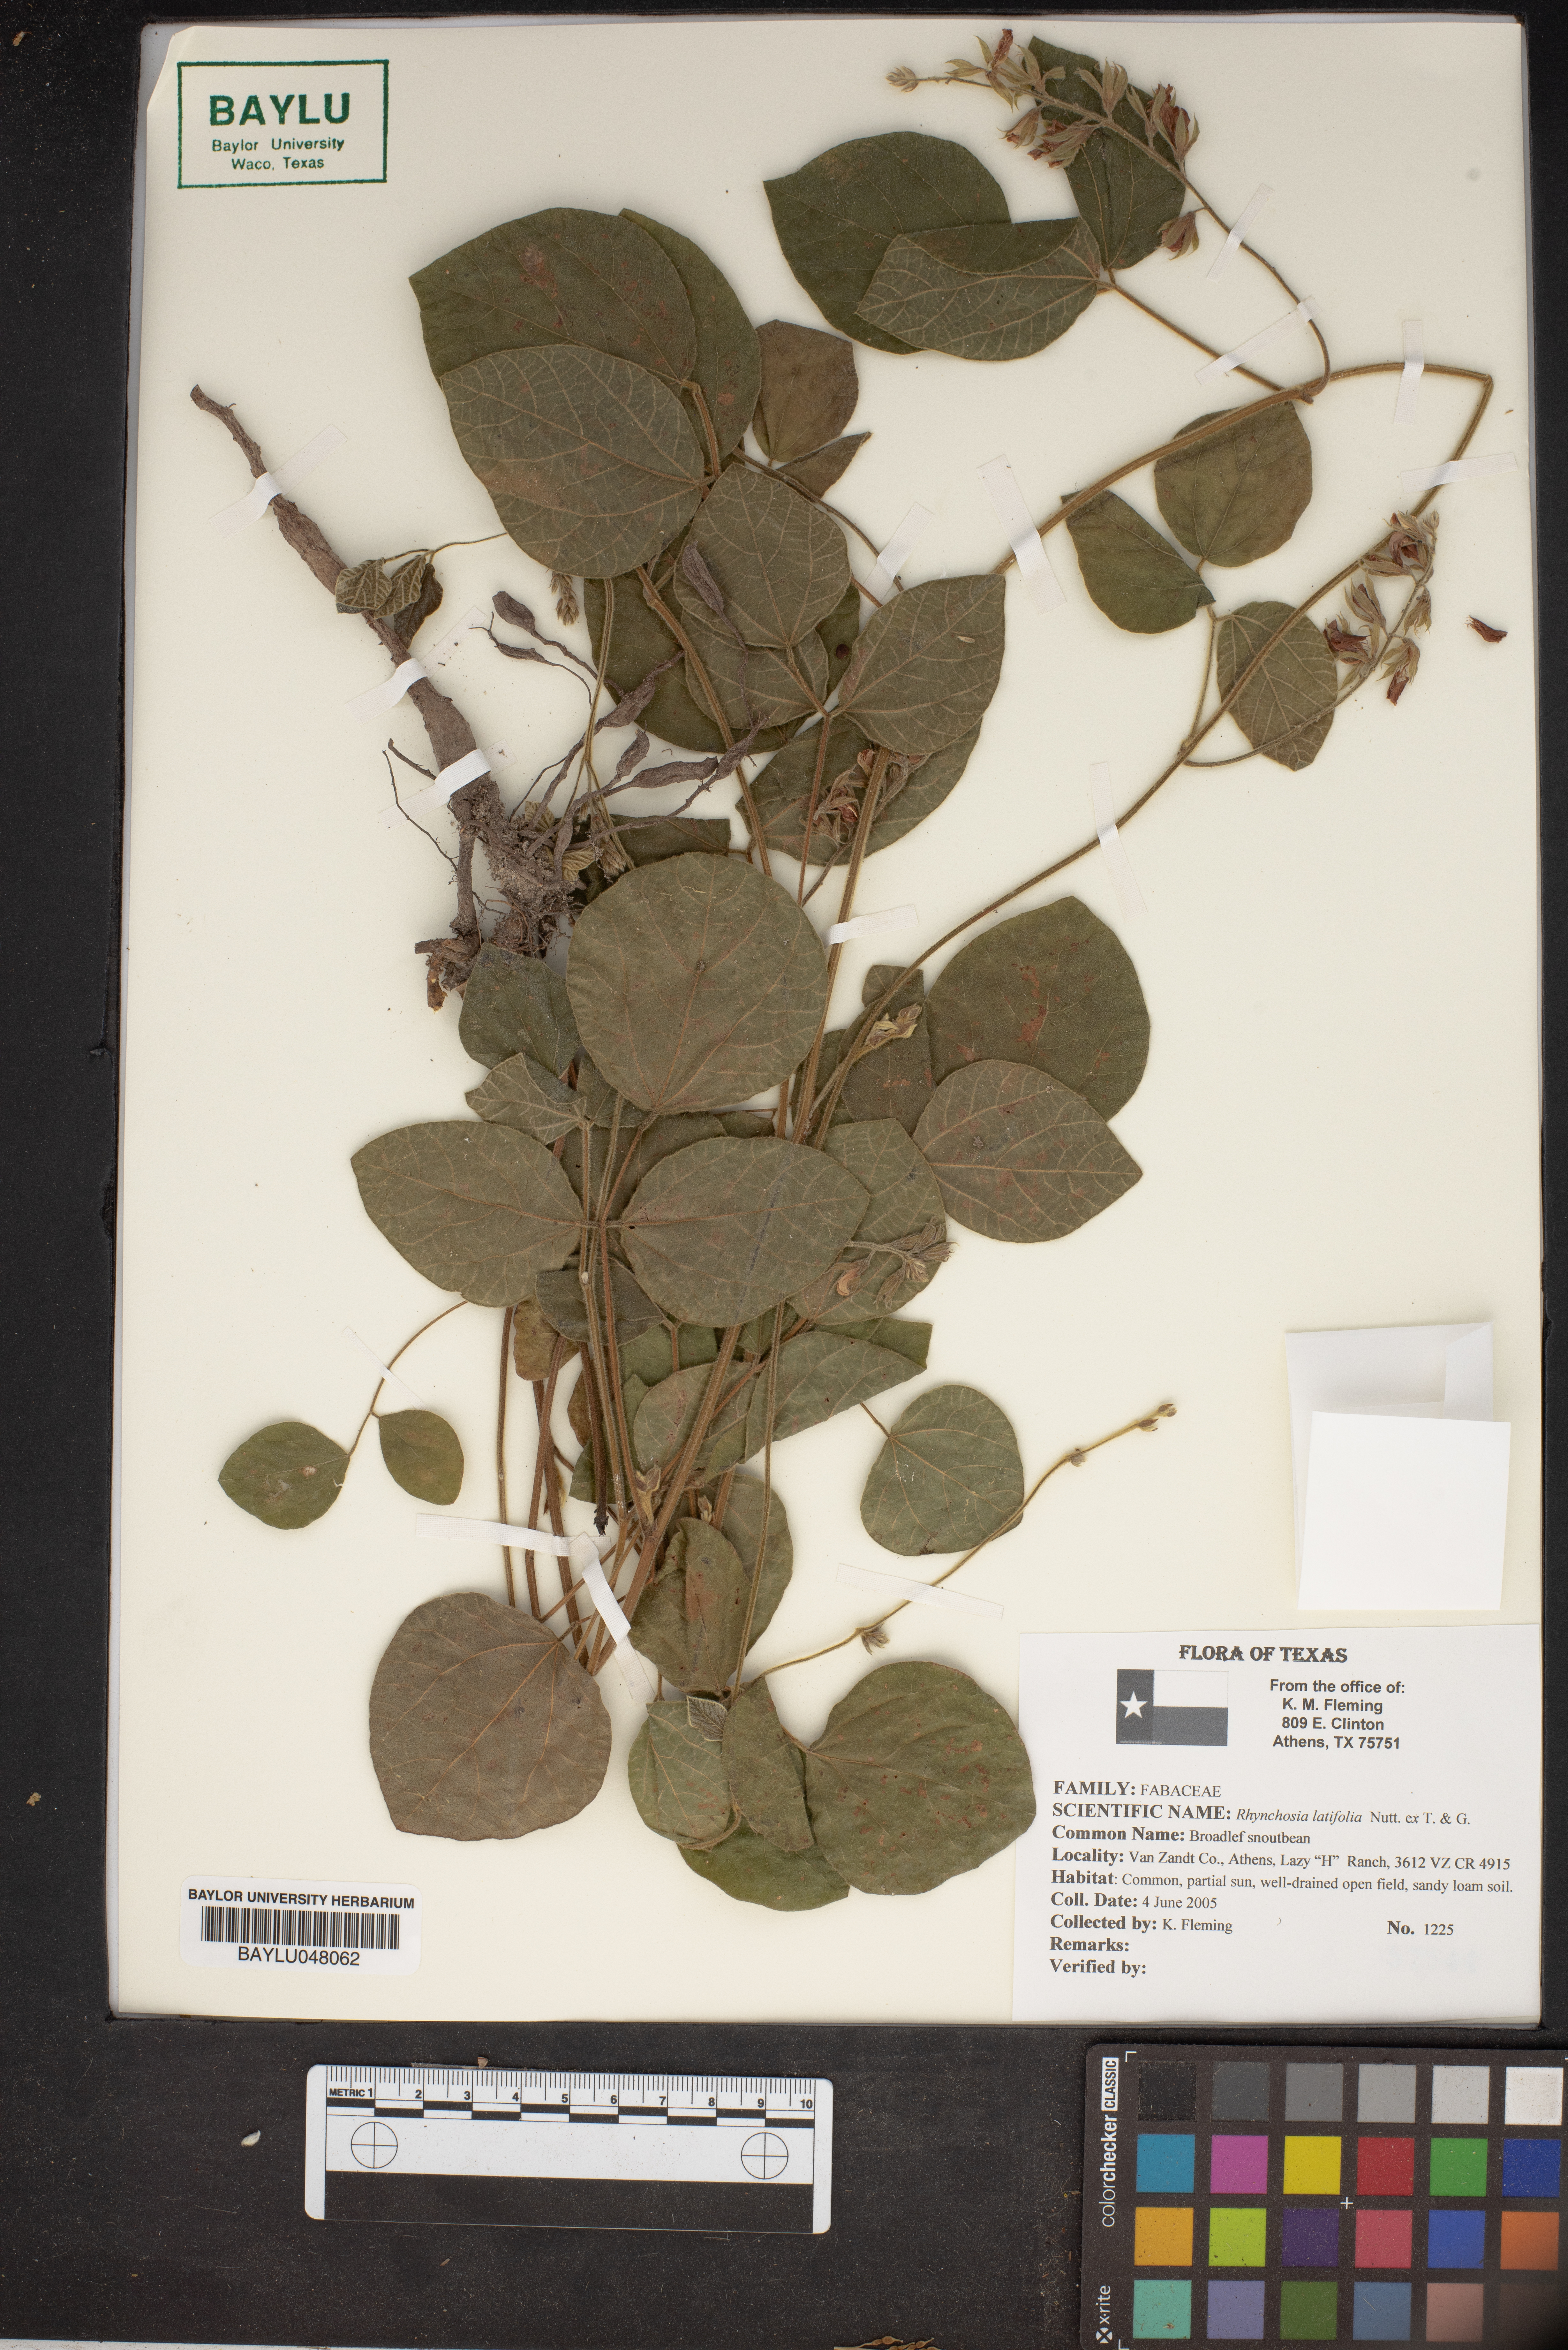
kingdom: Plantae
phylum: Tracheophyta
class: Magnoliopsida
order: Fabales
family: Fabaceae
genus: Rhynchosia
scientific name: Rhynchosia latifolia
